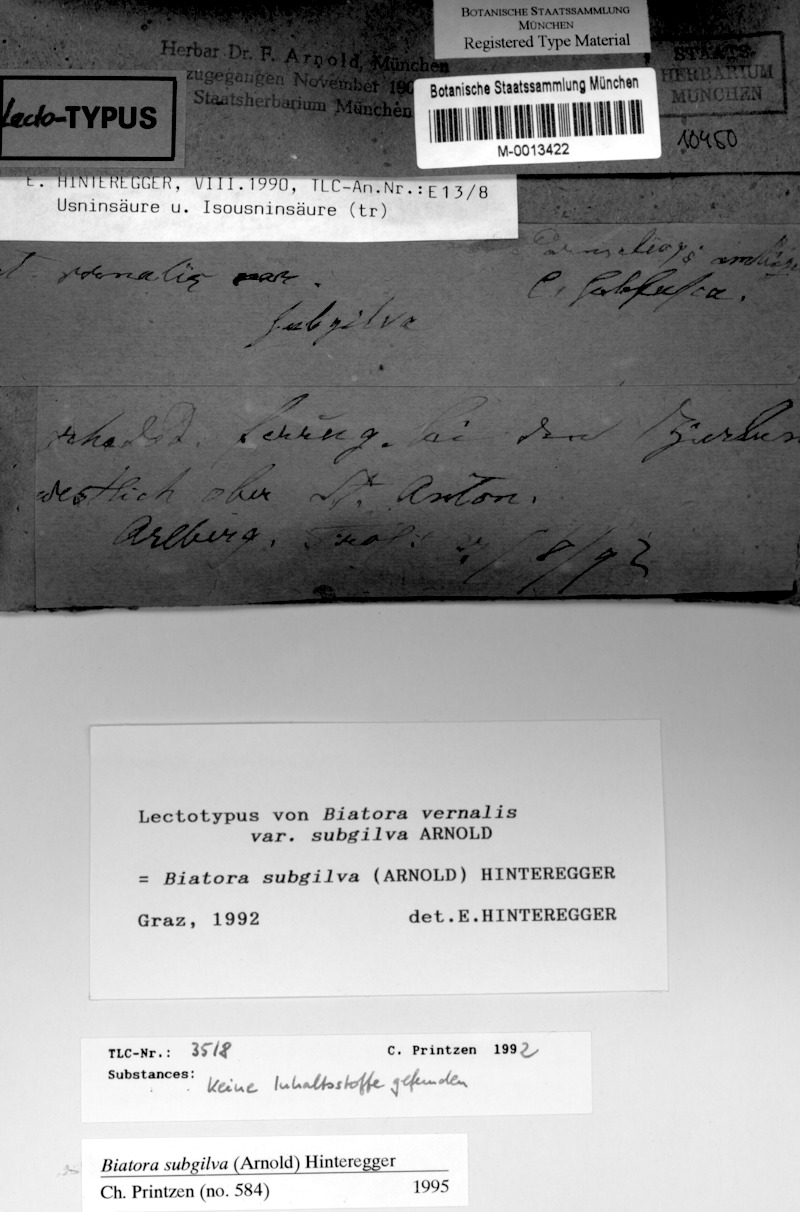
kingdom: Fungi
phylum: Ascomycota
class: Lecanoromycetes
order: Lecanorales
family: Ramalinaceae
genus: Biatora
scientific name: Biatora subgilva
